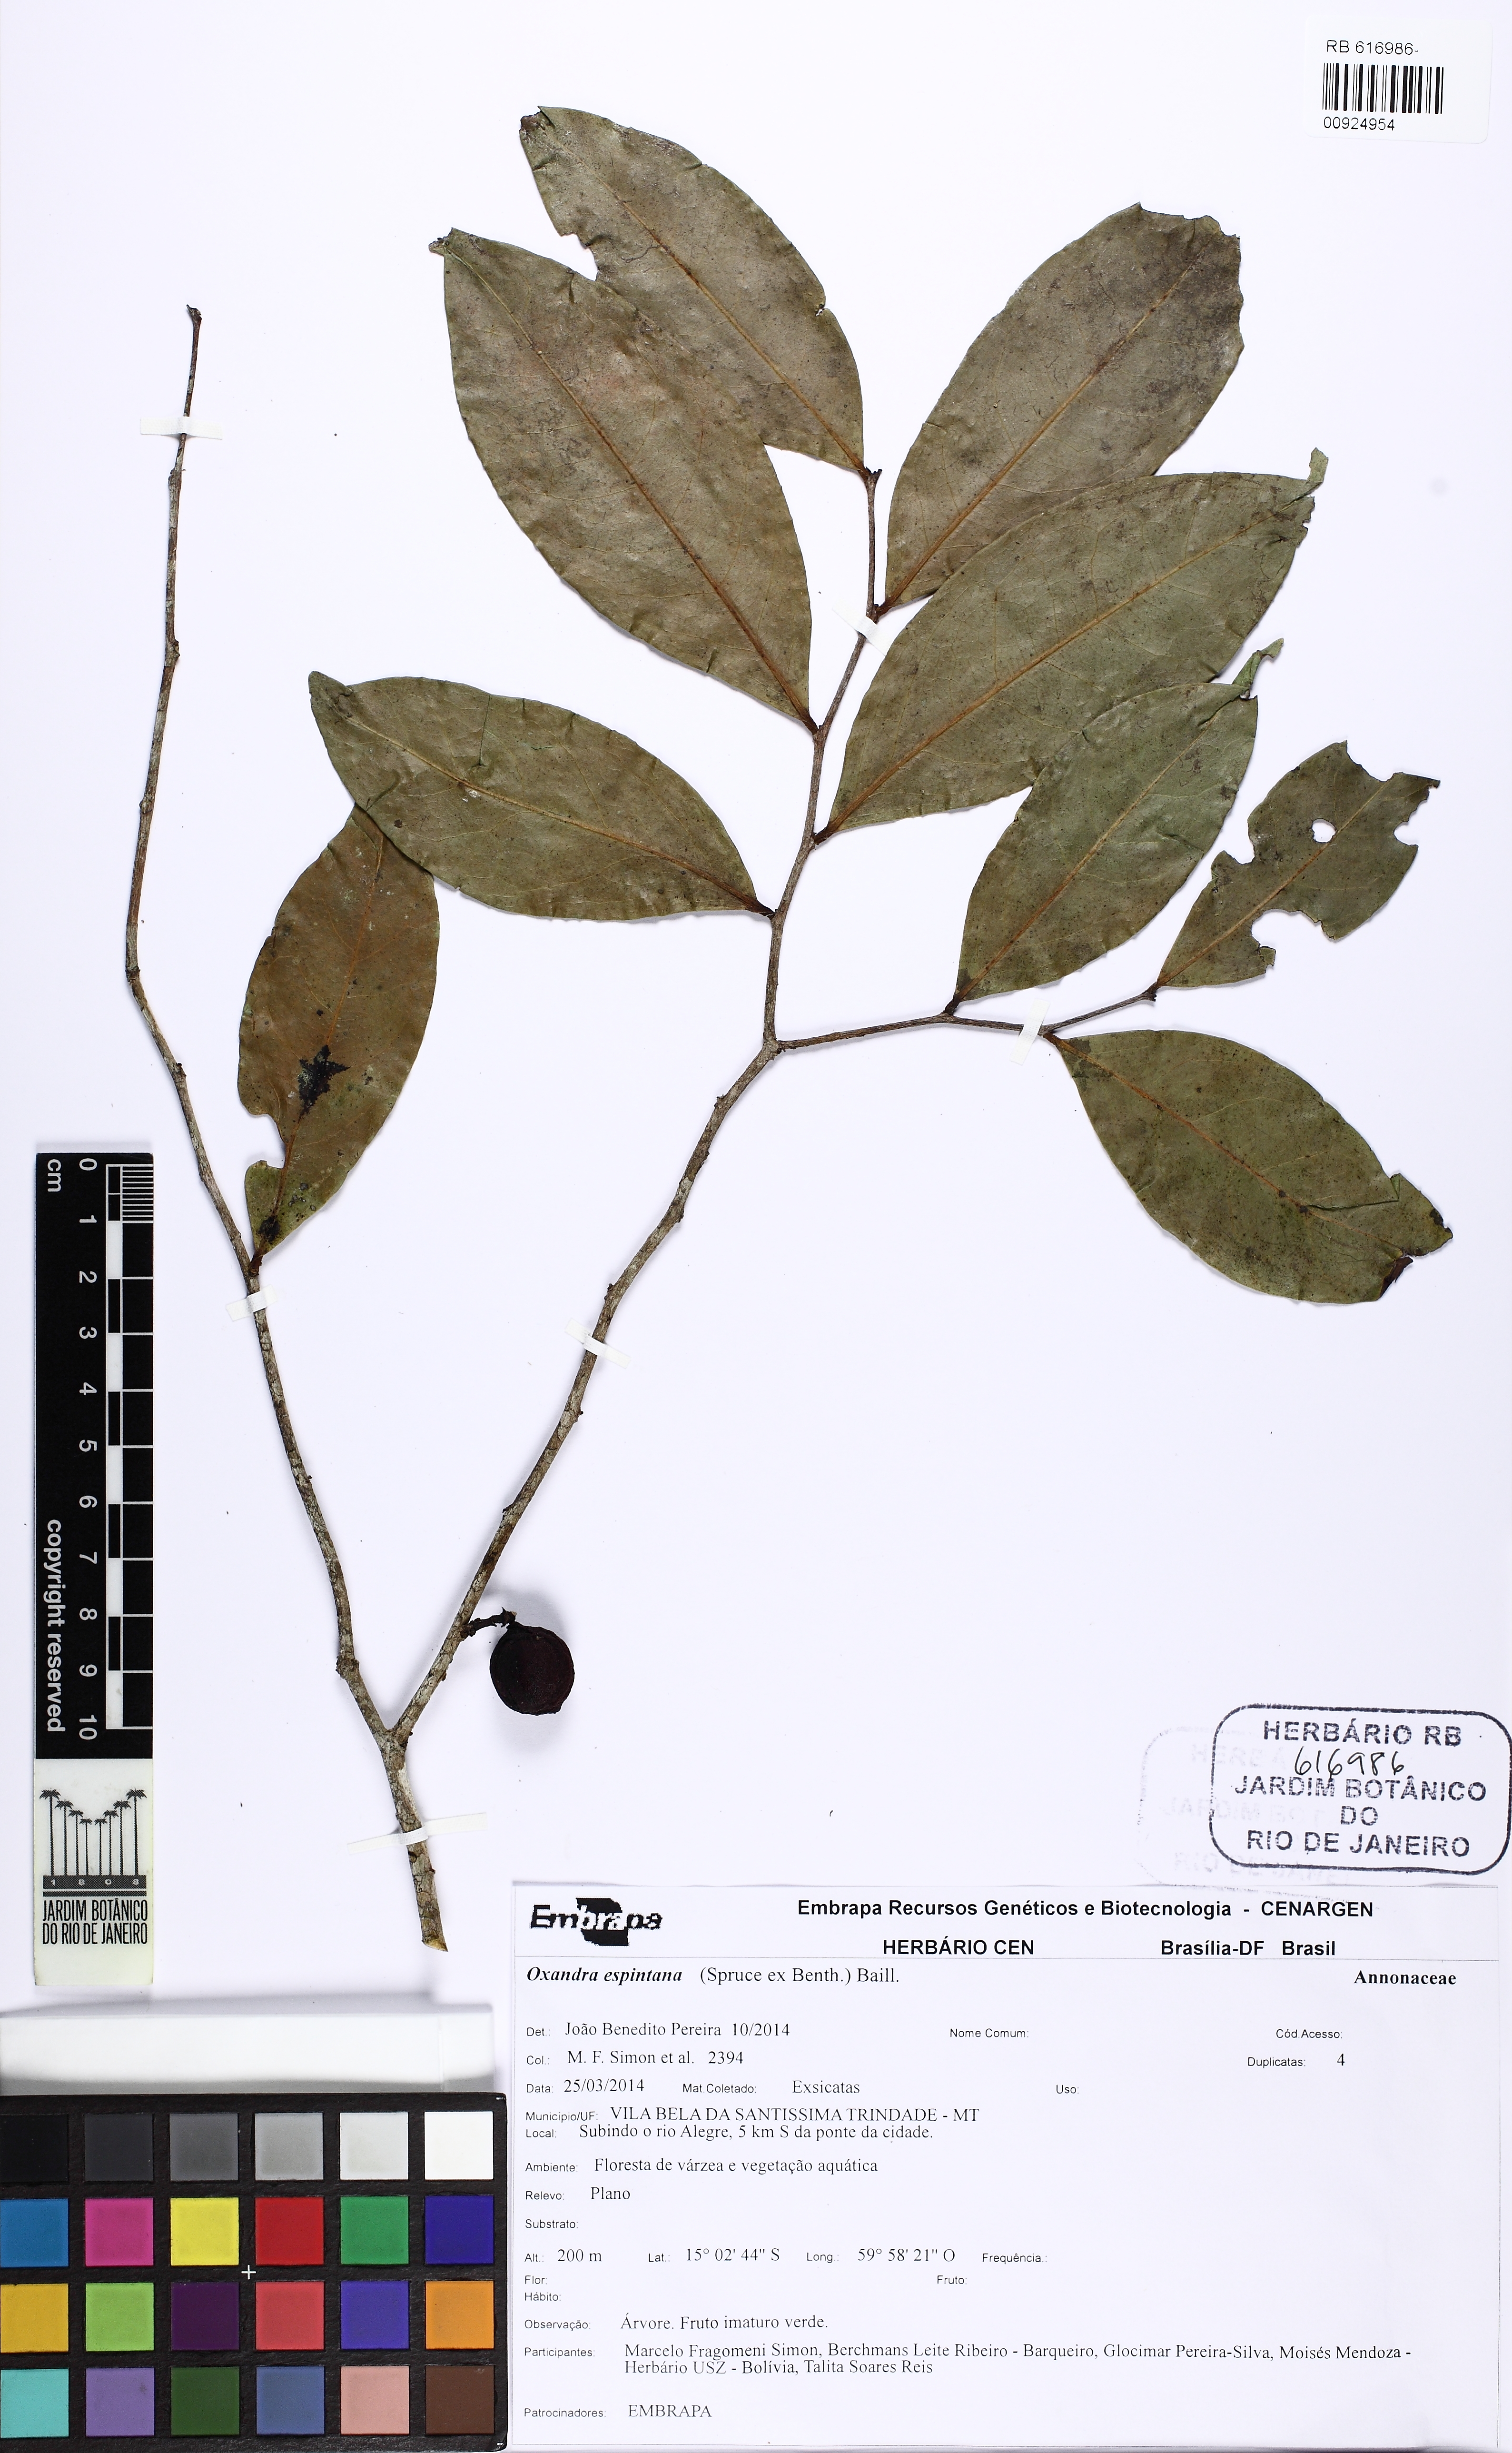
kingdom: Plantae
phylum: Tracheophyta
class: Magnoliopsida
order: Magnoliales
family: Annonaceae
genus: Oxandra
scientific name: Oxandra espintana
